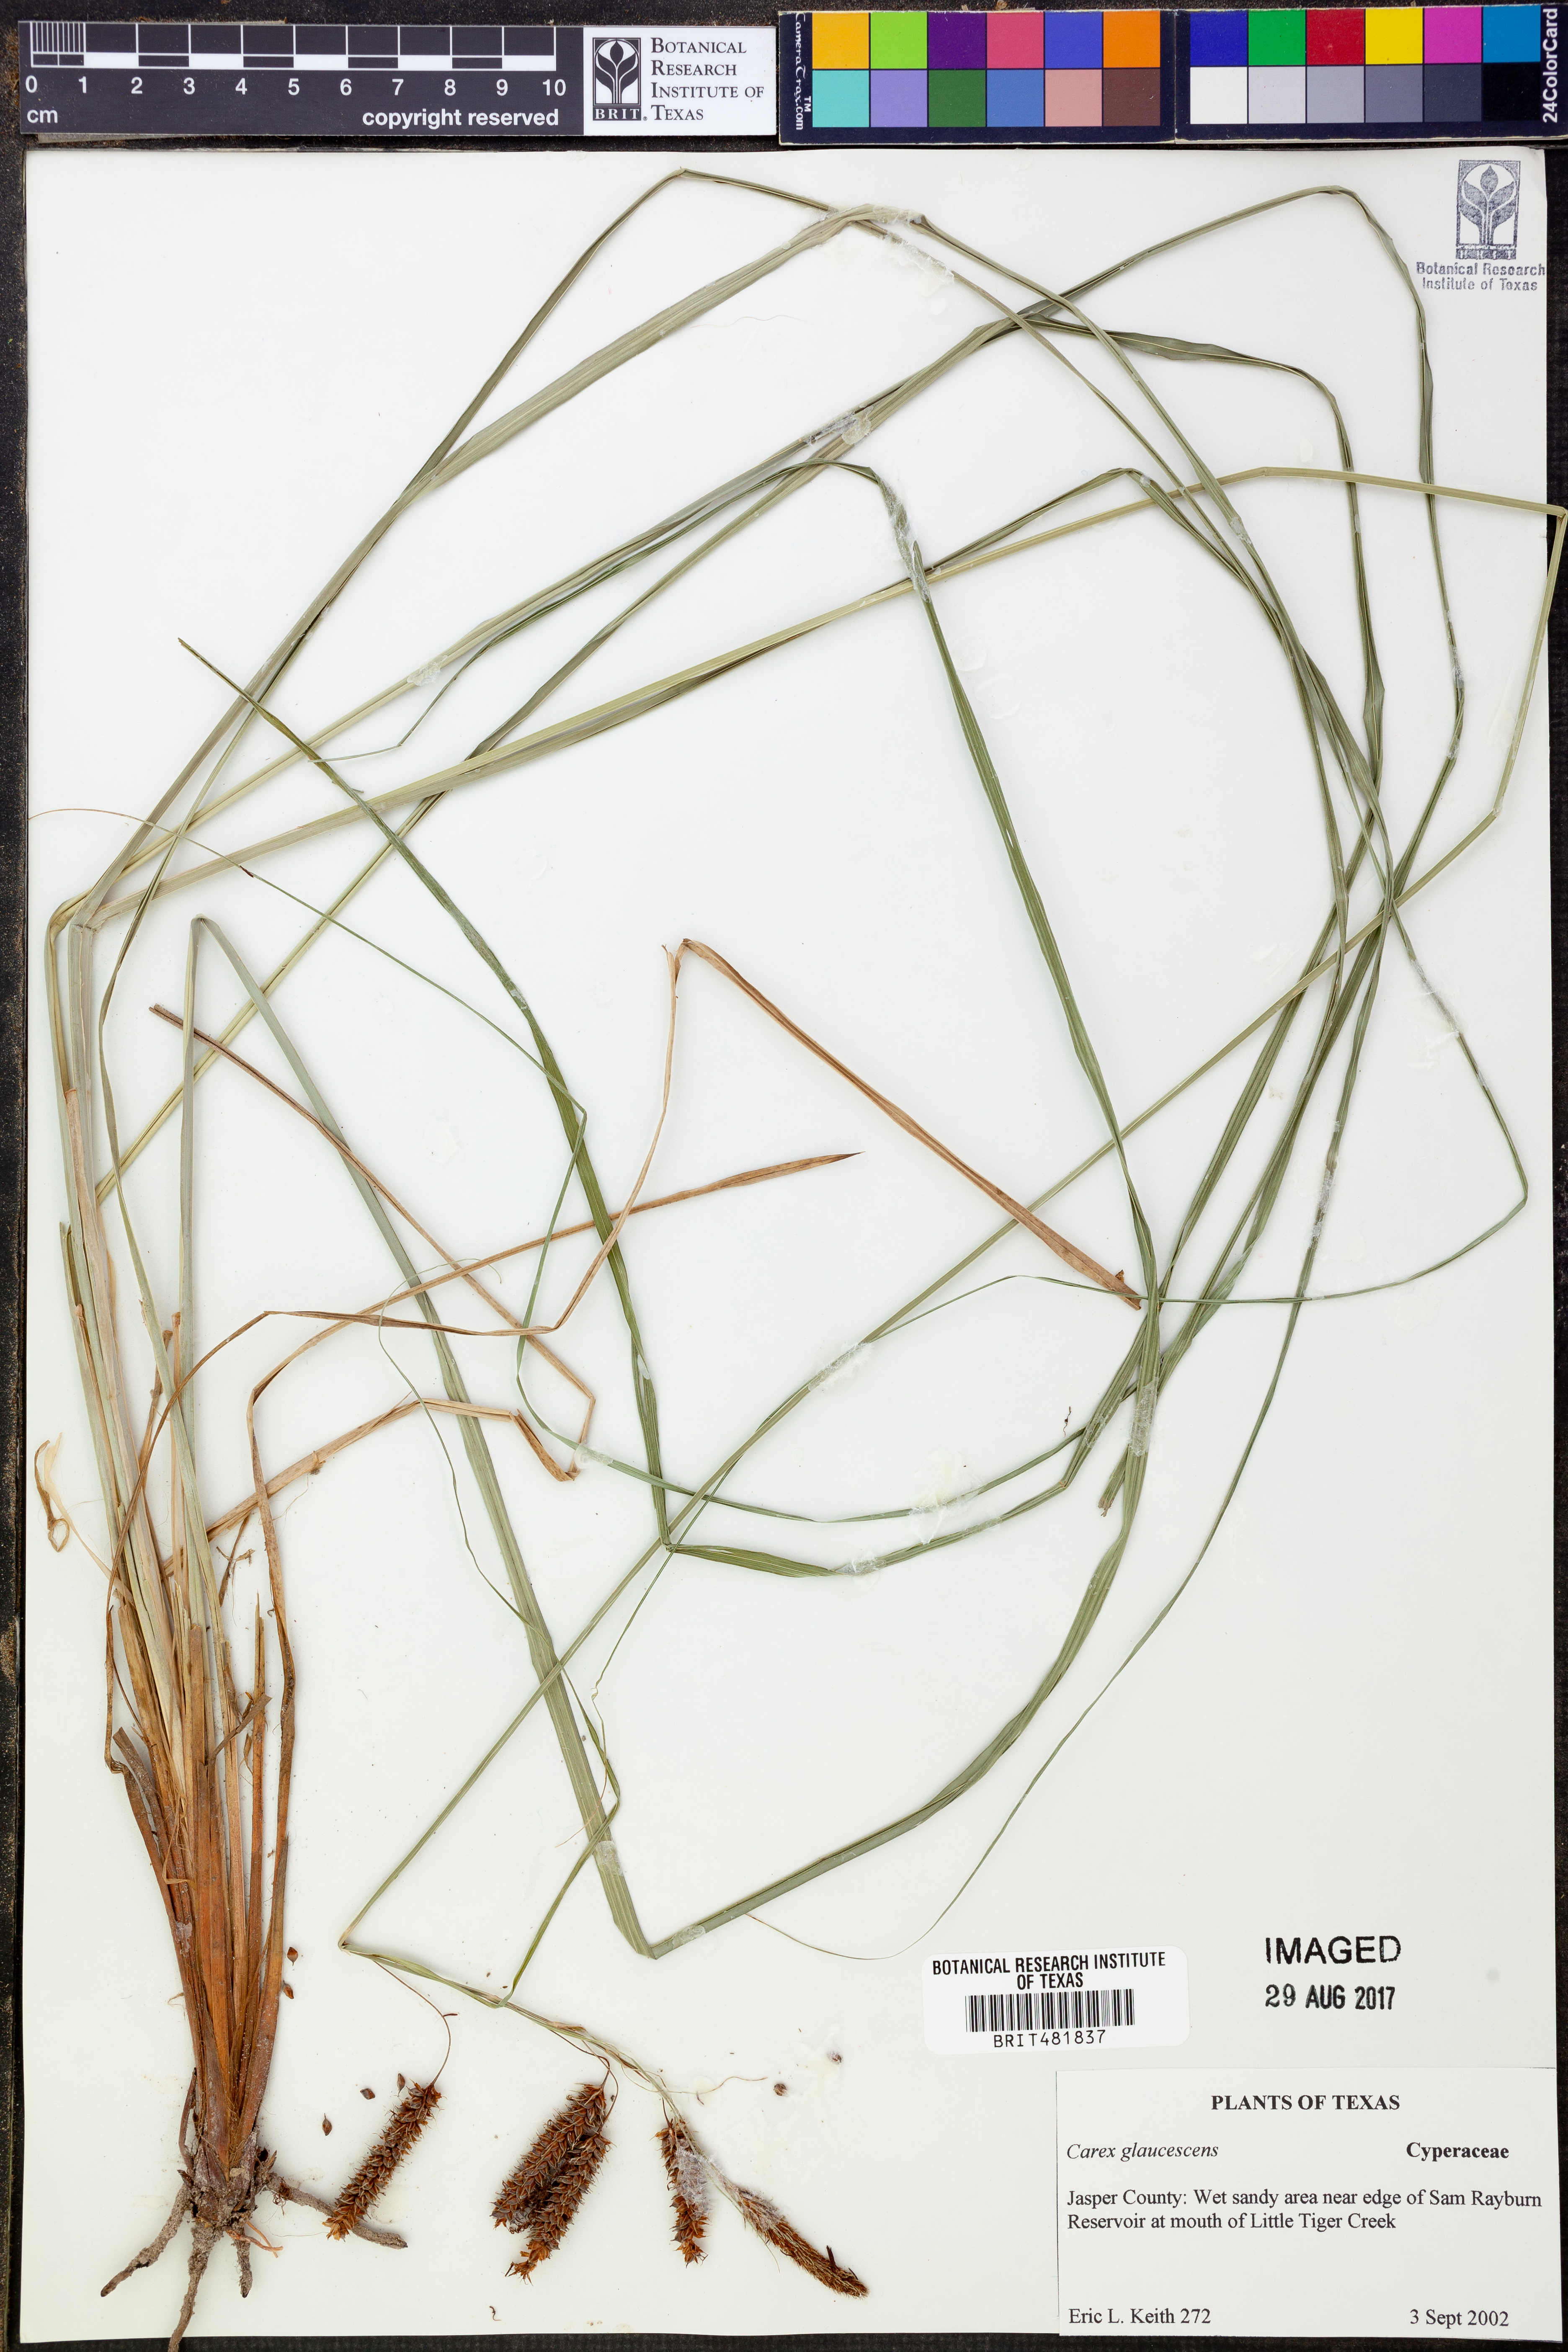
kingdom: Plantae
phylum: Tracheophyta
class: Liliopsida
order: Poales
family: Cyperaceae
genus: Carex
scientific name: Carex glaucescens
